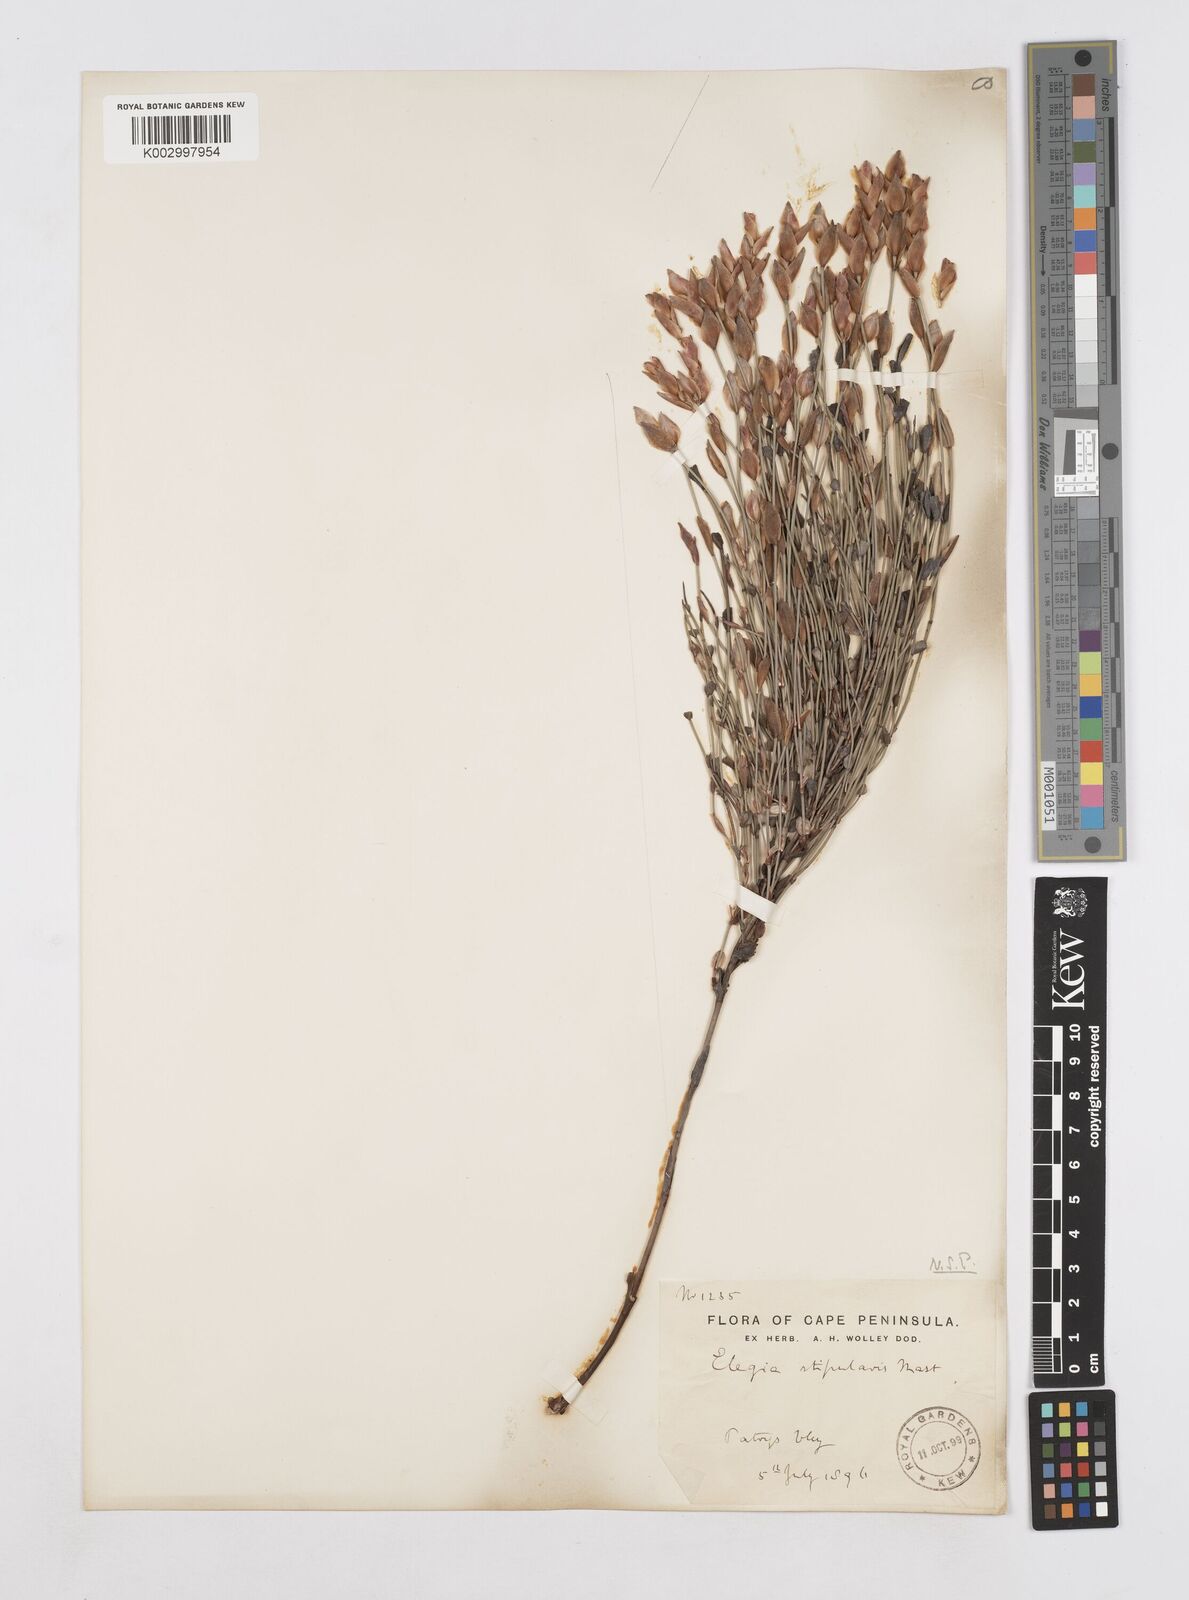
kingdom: Plantae
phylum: Tracheophyta
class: Liliopsida
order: Poales
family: Restionaceae
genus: Elegia
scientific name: Elegia stipularis
